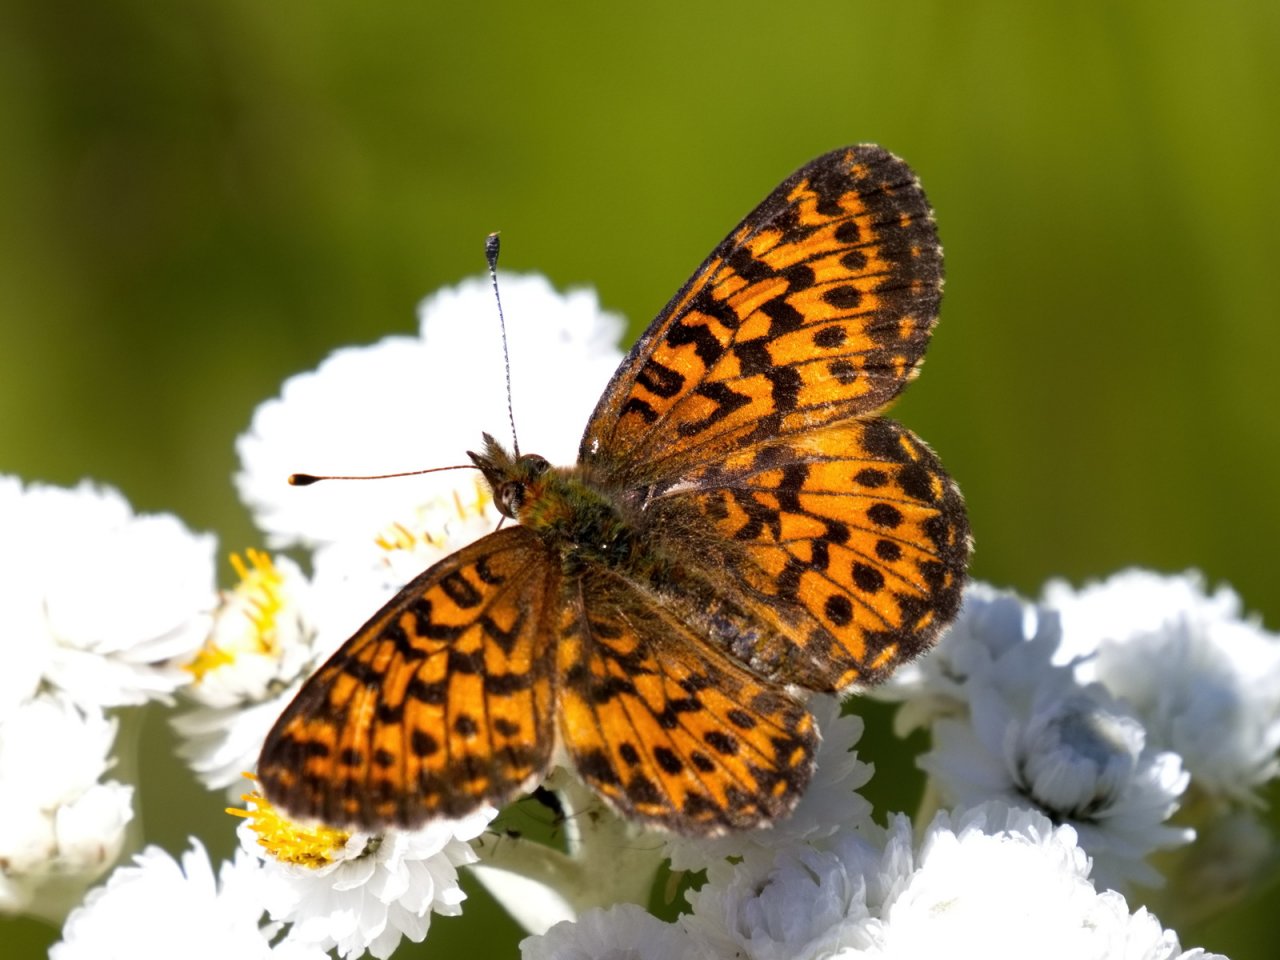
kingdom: Animalia
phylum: Arthropoda
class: Insecta
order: Lepidoptera
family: Nymphalidae
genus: Boloria
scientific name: Boloria chariclea
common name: Arctic Fritillary
